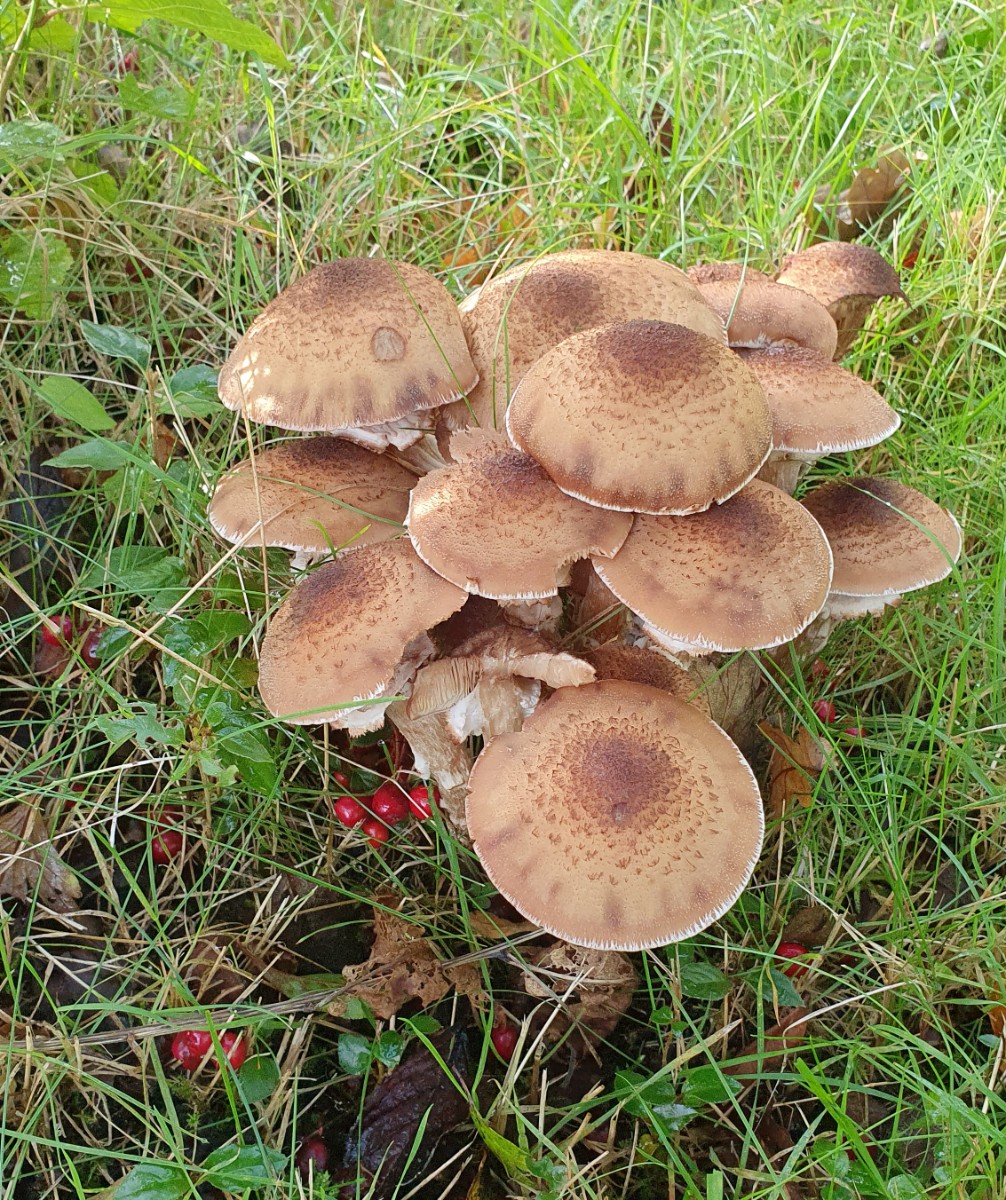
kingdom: Fungi
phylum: Basidiomycota
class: Agaricomycetes
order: Agaricales
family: Physalacriaceae
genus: Armillaria
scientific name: Armillaria ostoyae
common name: mørk honningsvamp
